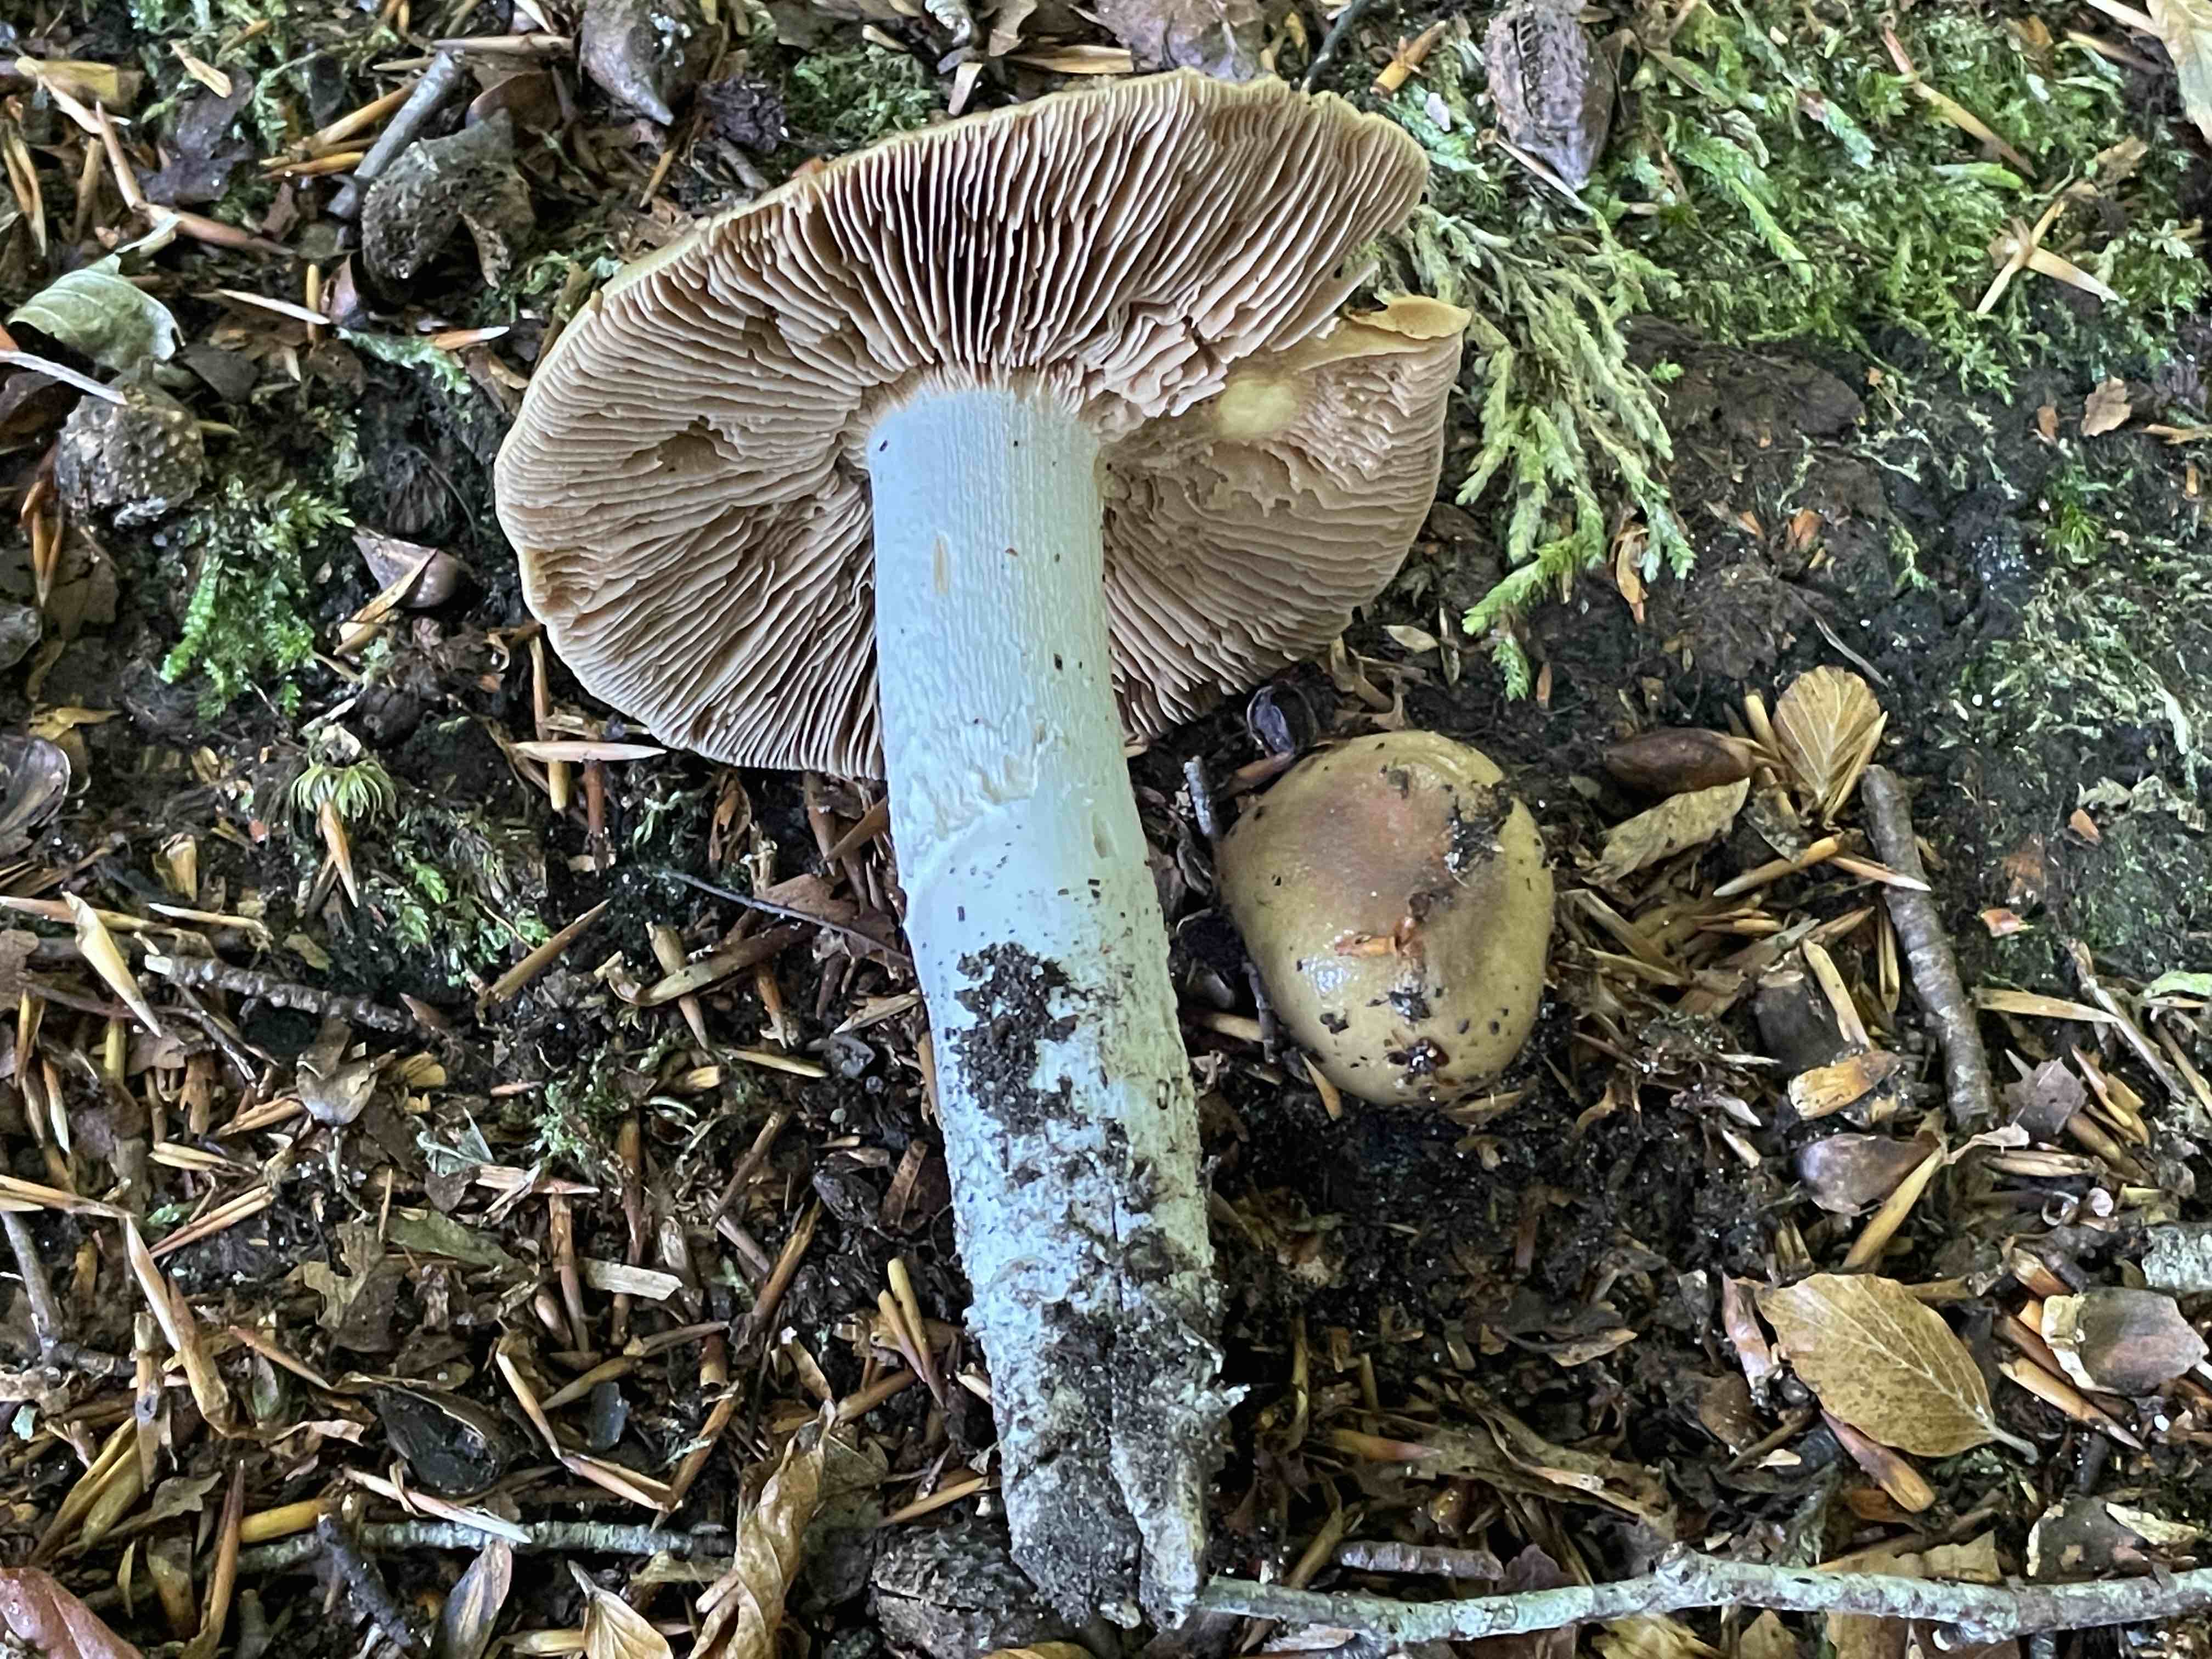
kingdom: Fungi
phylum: Basidiomycota
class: Agaricomycetes
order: Agaricales
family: Cortinariaceae
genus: Cortinarius
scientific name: Cortinarius elatior
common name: høj slørhat
